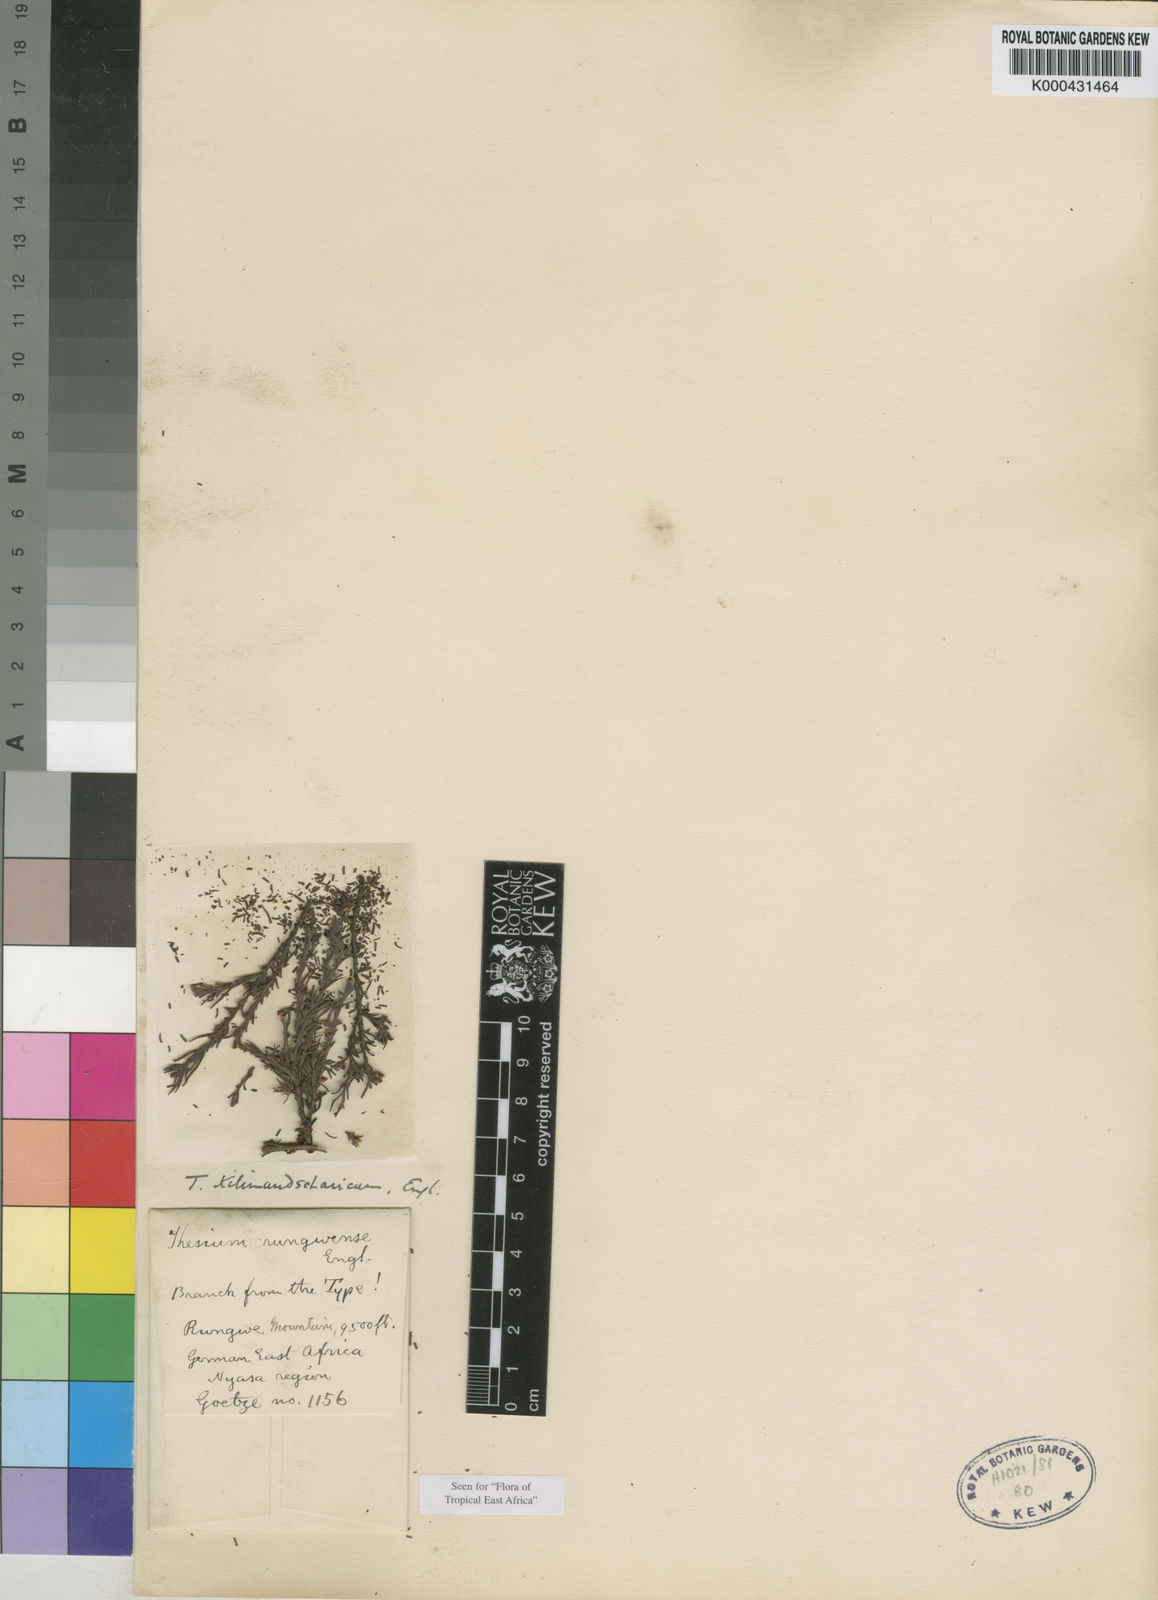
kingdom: Plantae
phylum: Tracheophyta
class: Magnoliopsida
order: Santalales
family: Thesiaceae
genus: Thesium
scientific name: Thesium kilimandscharicum
